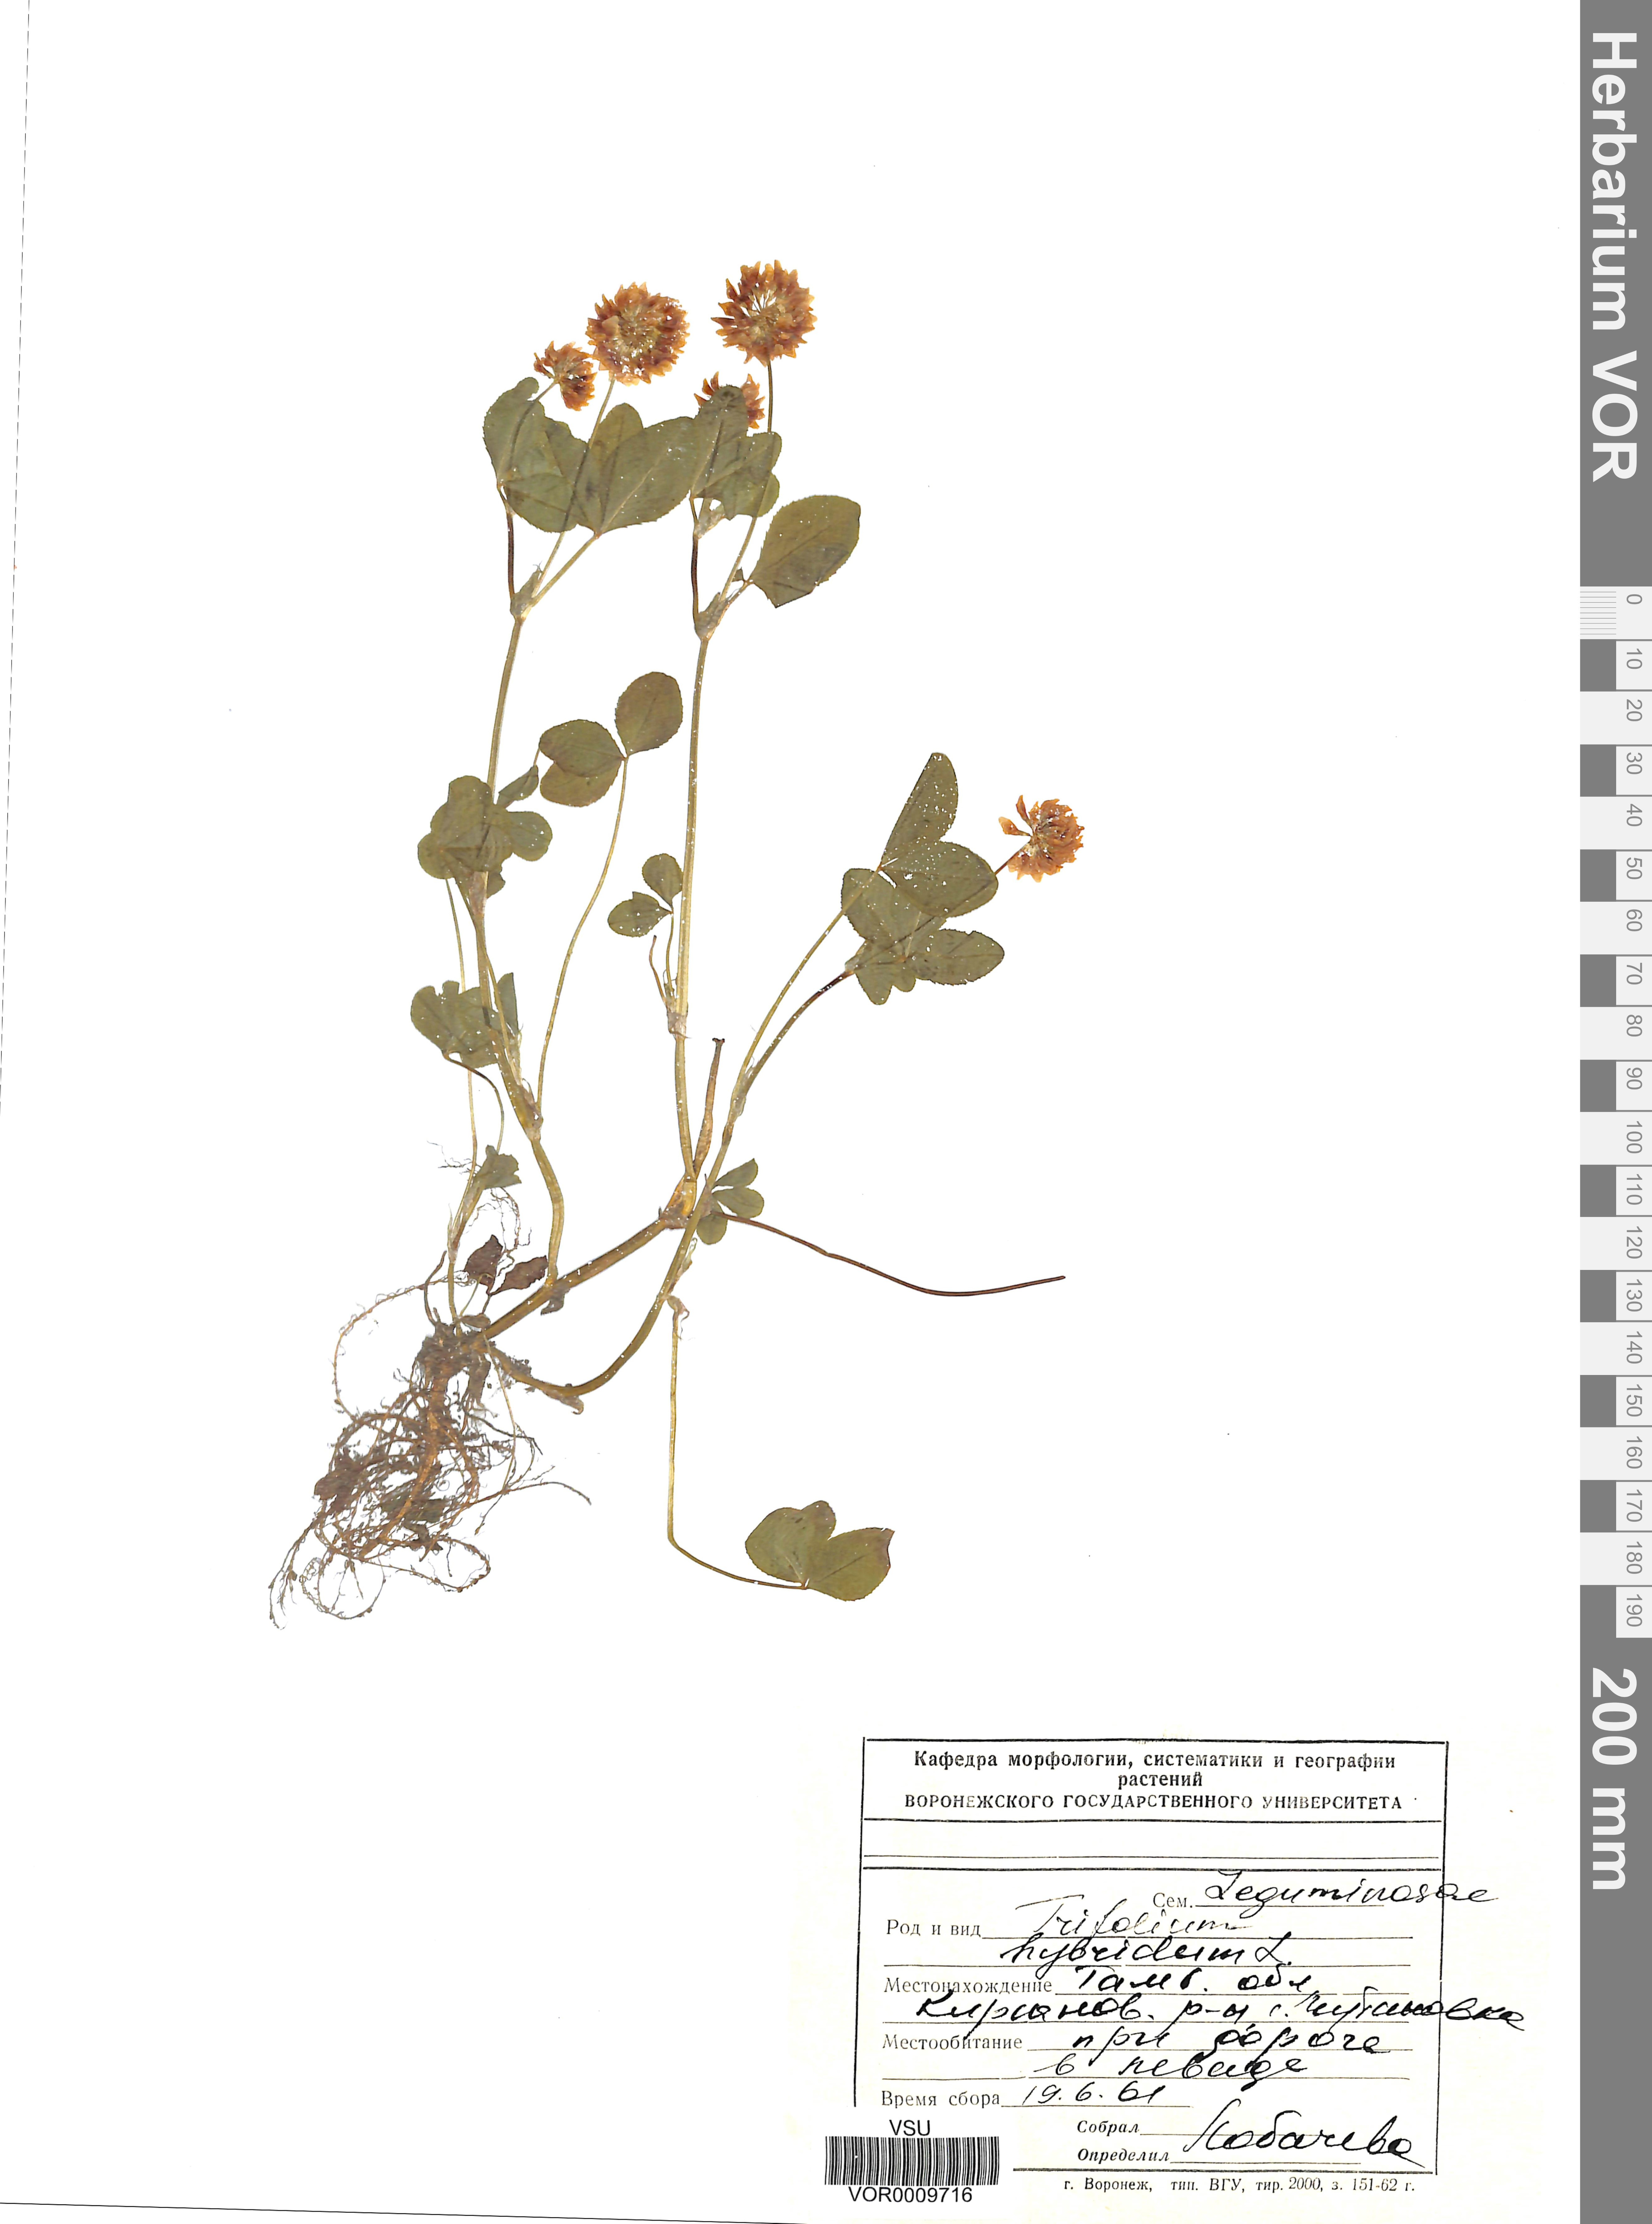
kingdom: Plantae
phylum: Tracheophyta
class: Magnoliopsida
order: Fabales
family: Fabaceae
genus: Trifolium
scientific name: Trifolium hybridum
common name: Alsike clover
